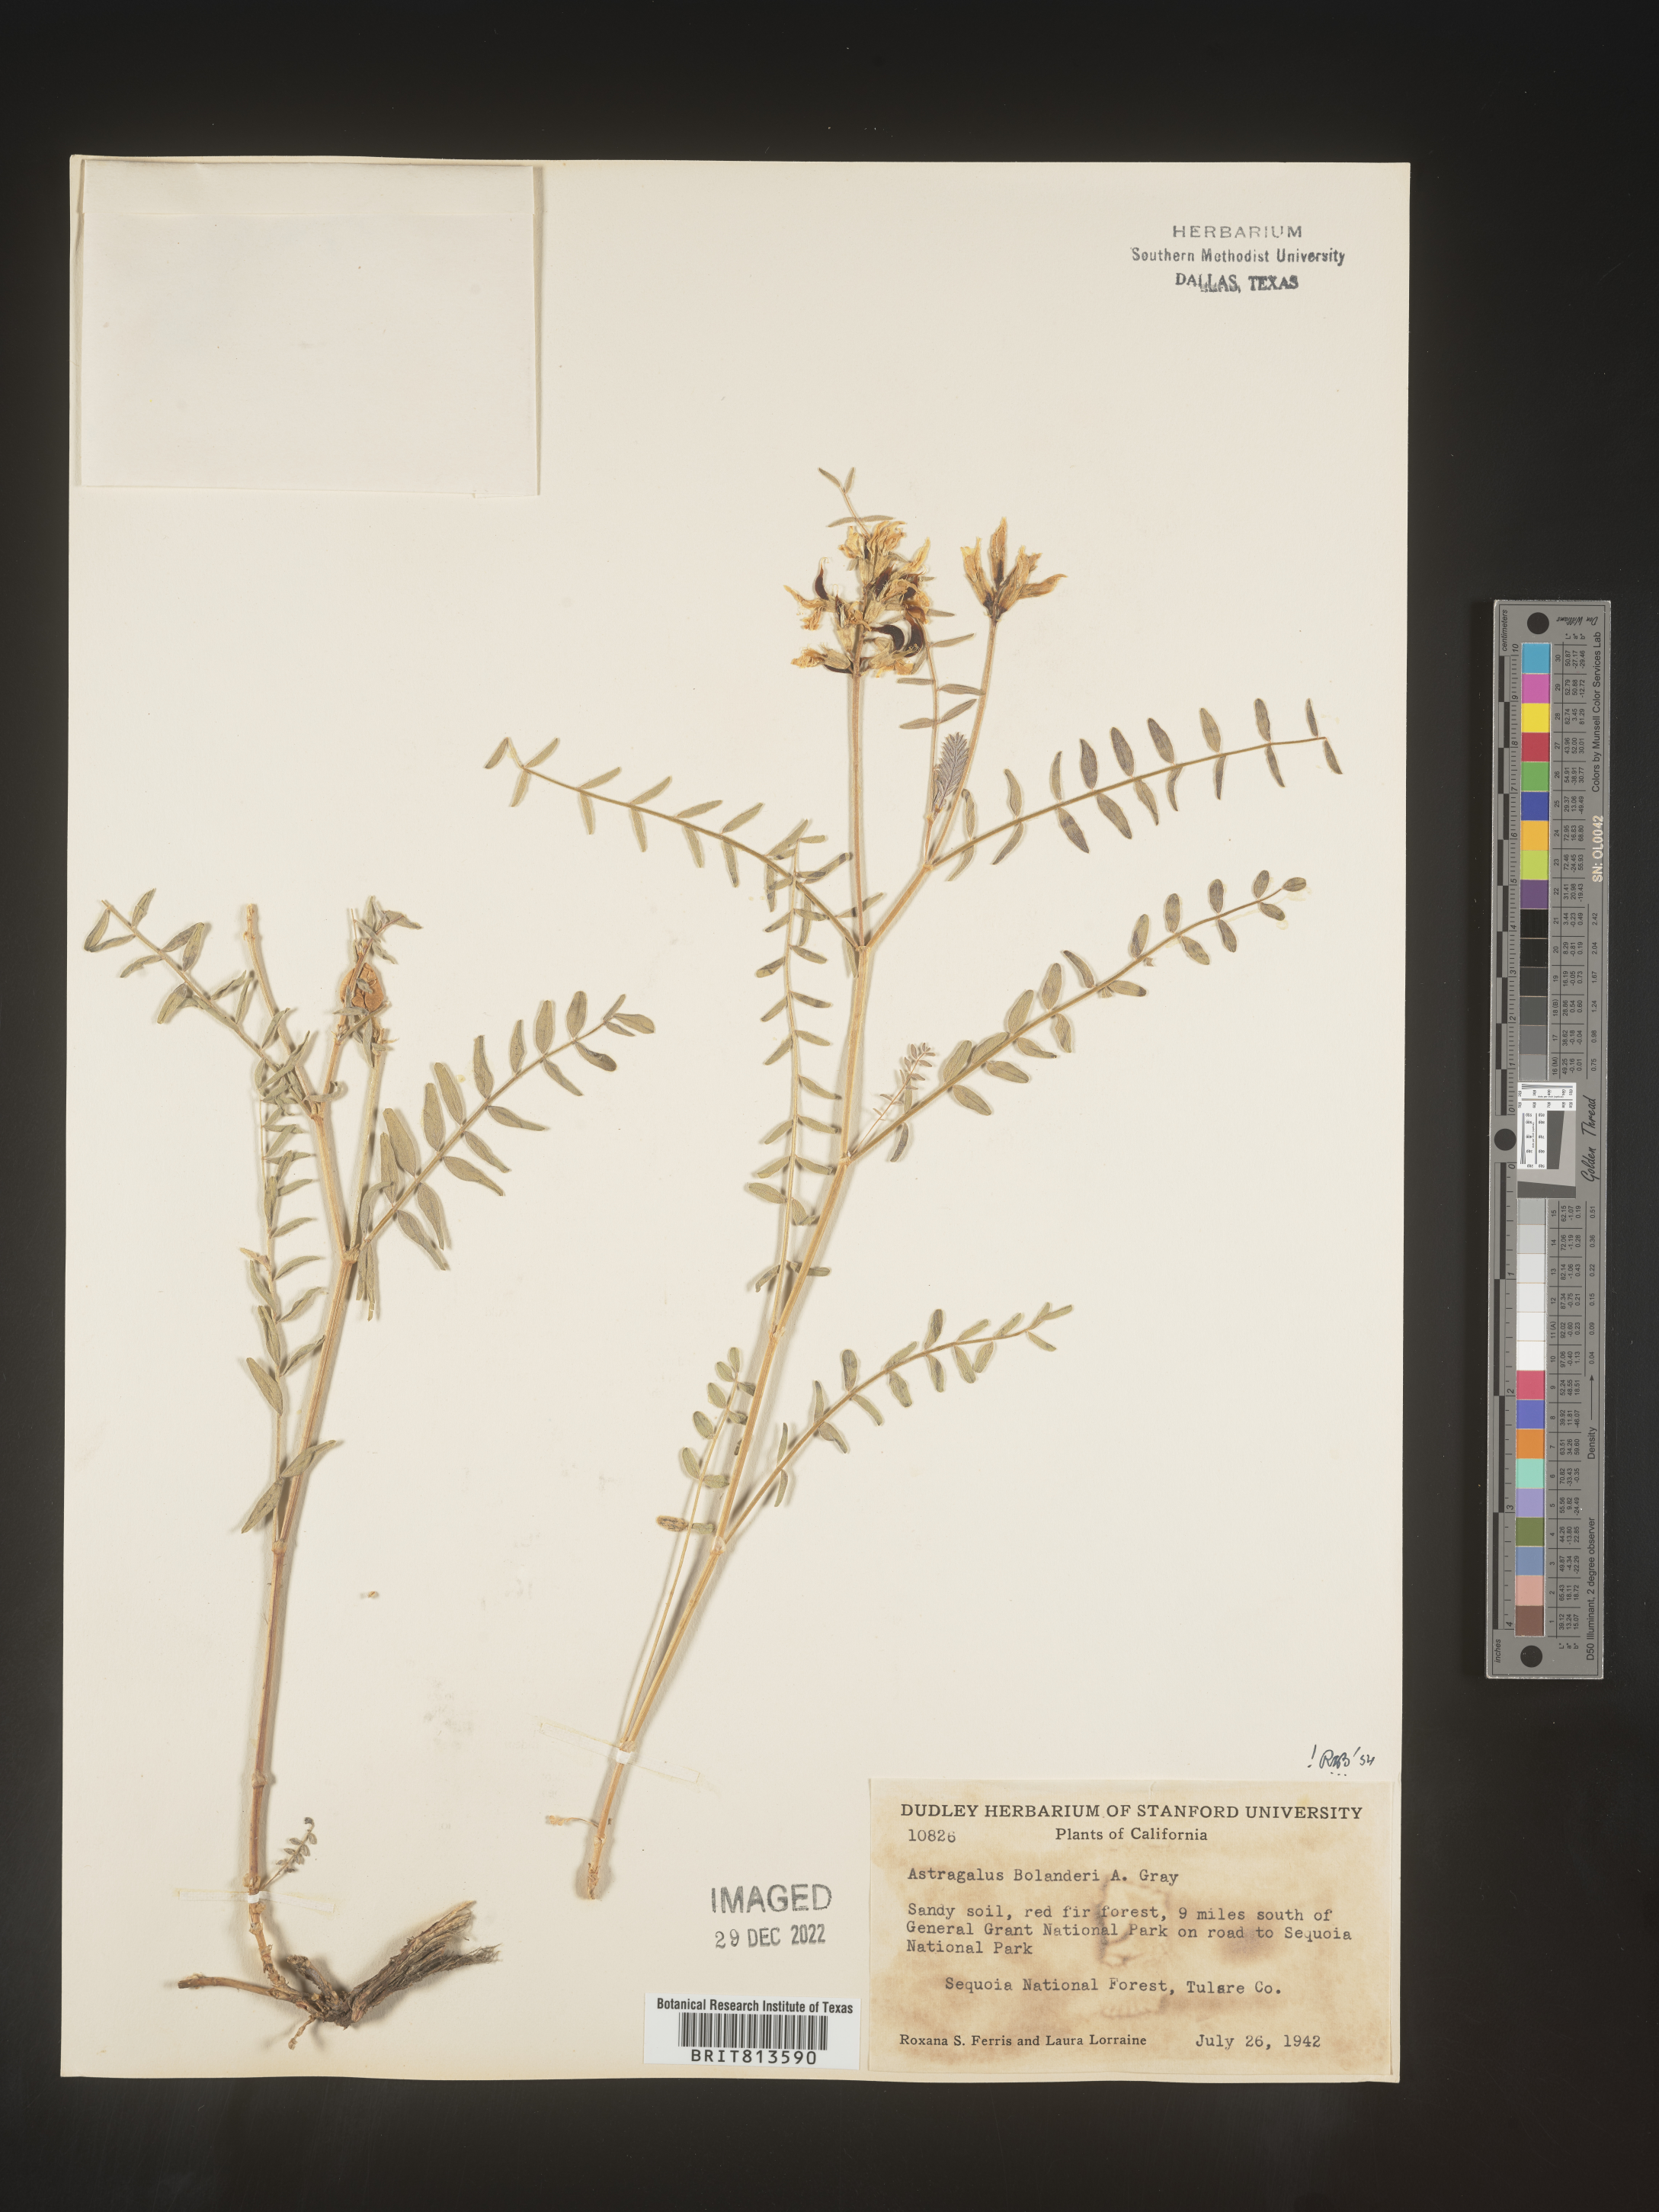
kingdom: Plantae
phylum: Tracheophyta
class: Magnoliopsida
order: Fabales
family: Fabaceae
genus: Astragalus
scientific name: Astragalus
